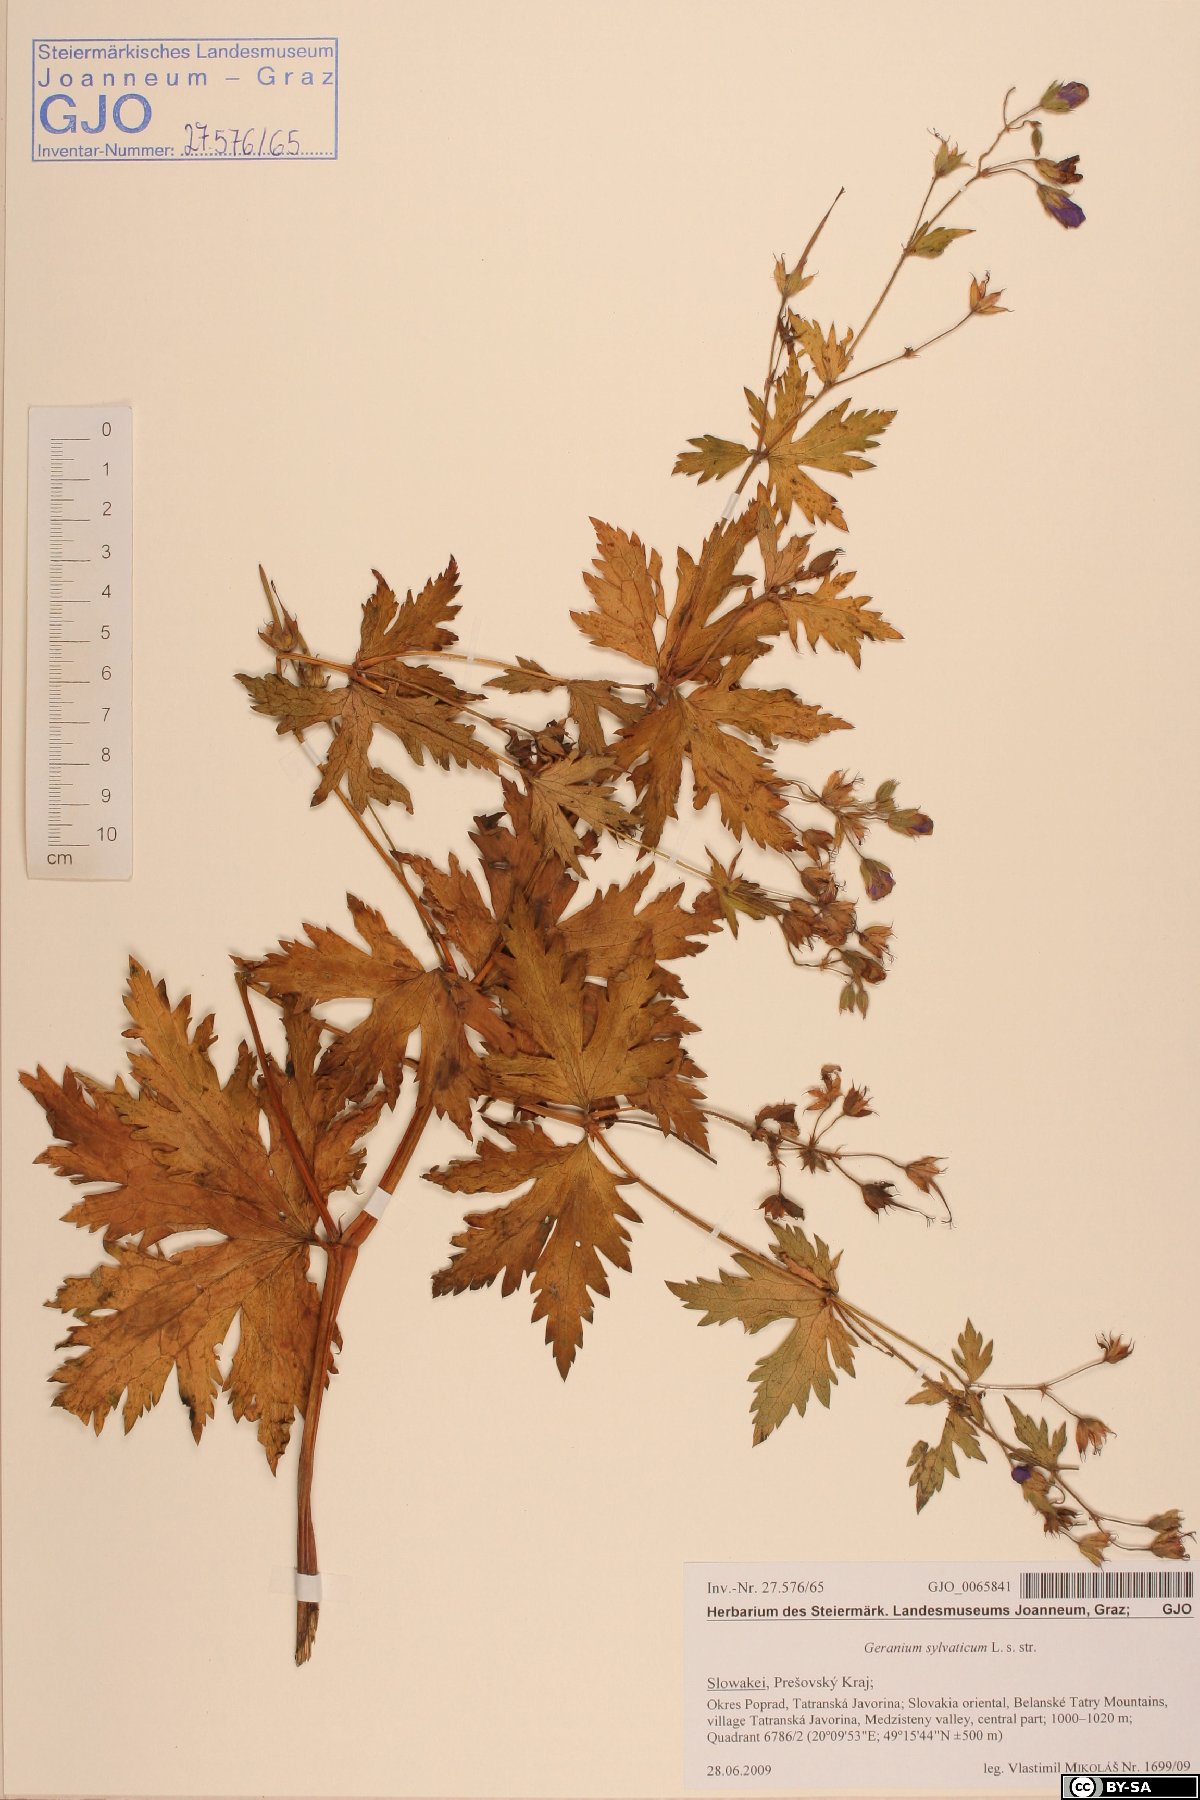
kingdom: Plantae
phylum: Tracheophyta
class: Magnoliopsida
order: Geraniales
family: Geraniaceae
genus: Geranium
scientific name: Geranium sylvaticum
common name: Wood crane's-bill
